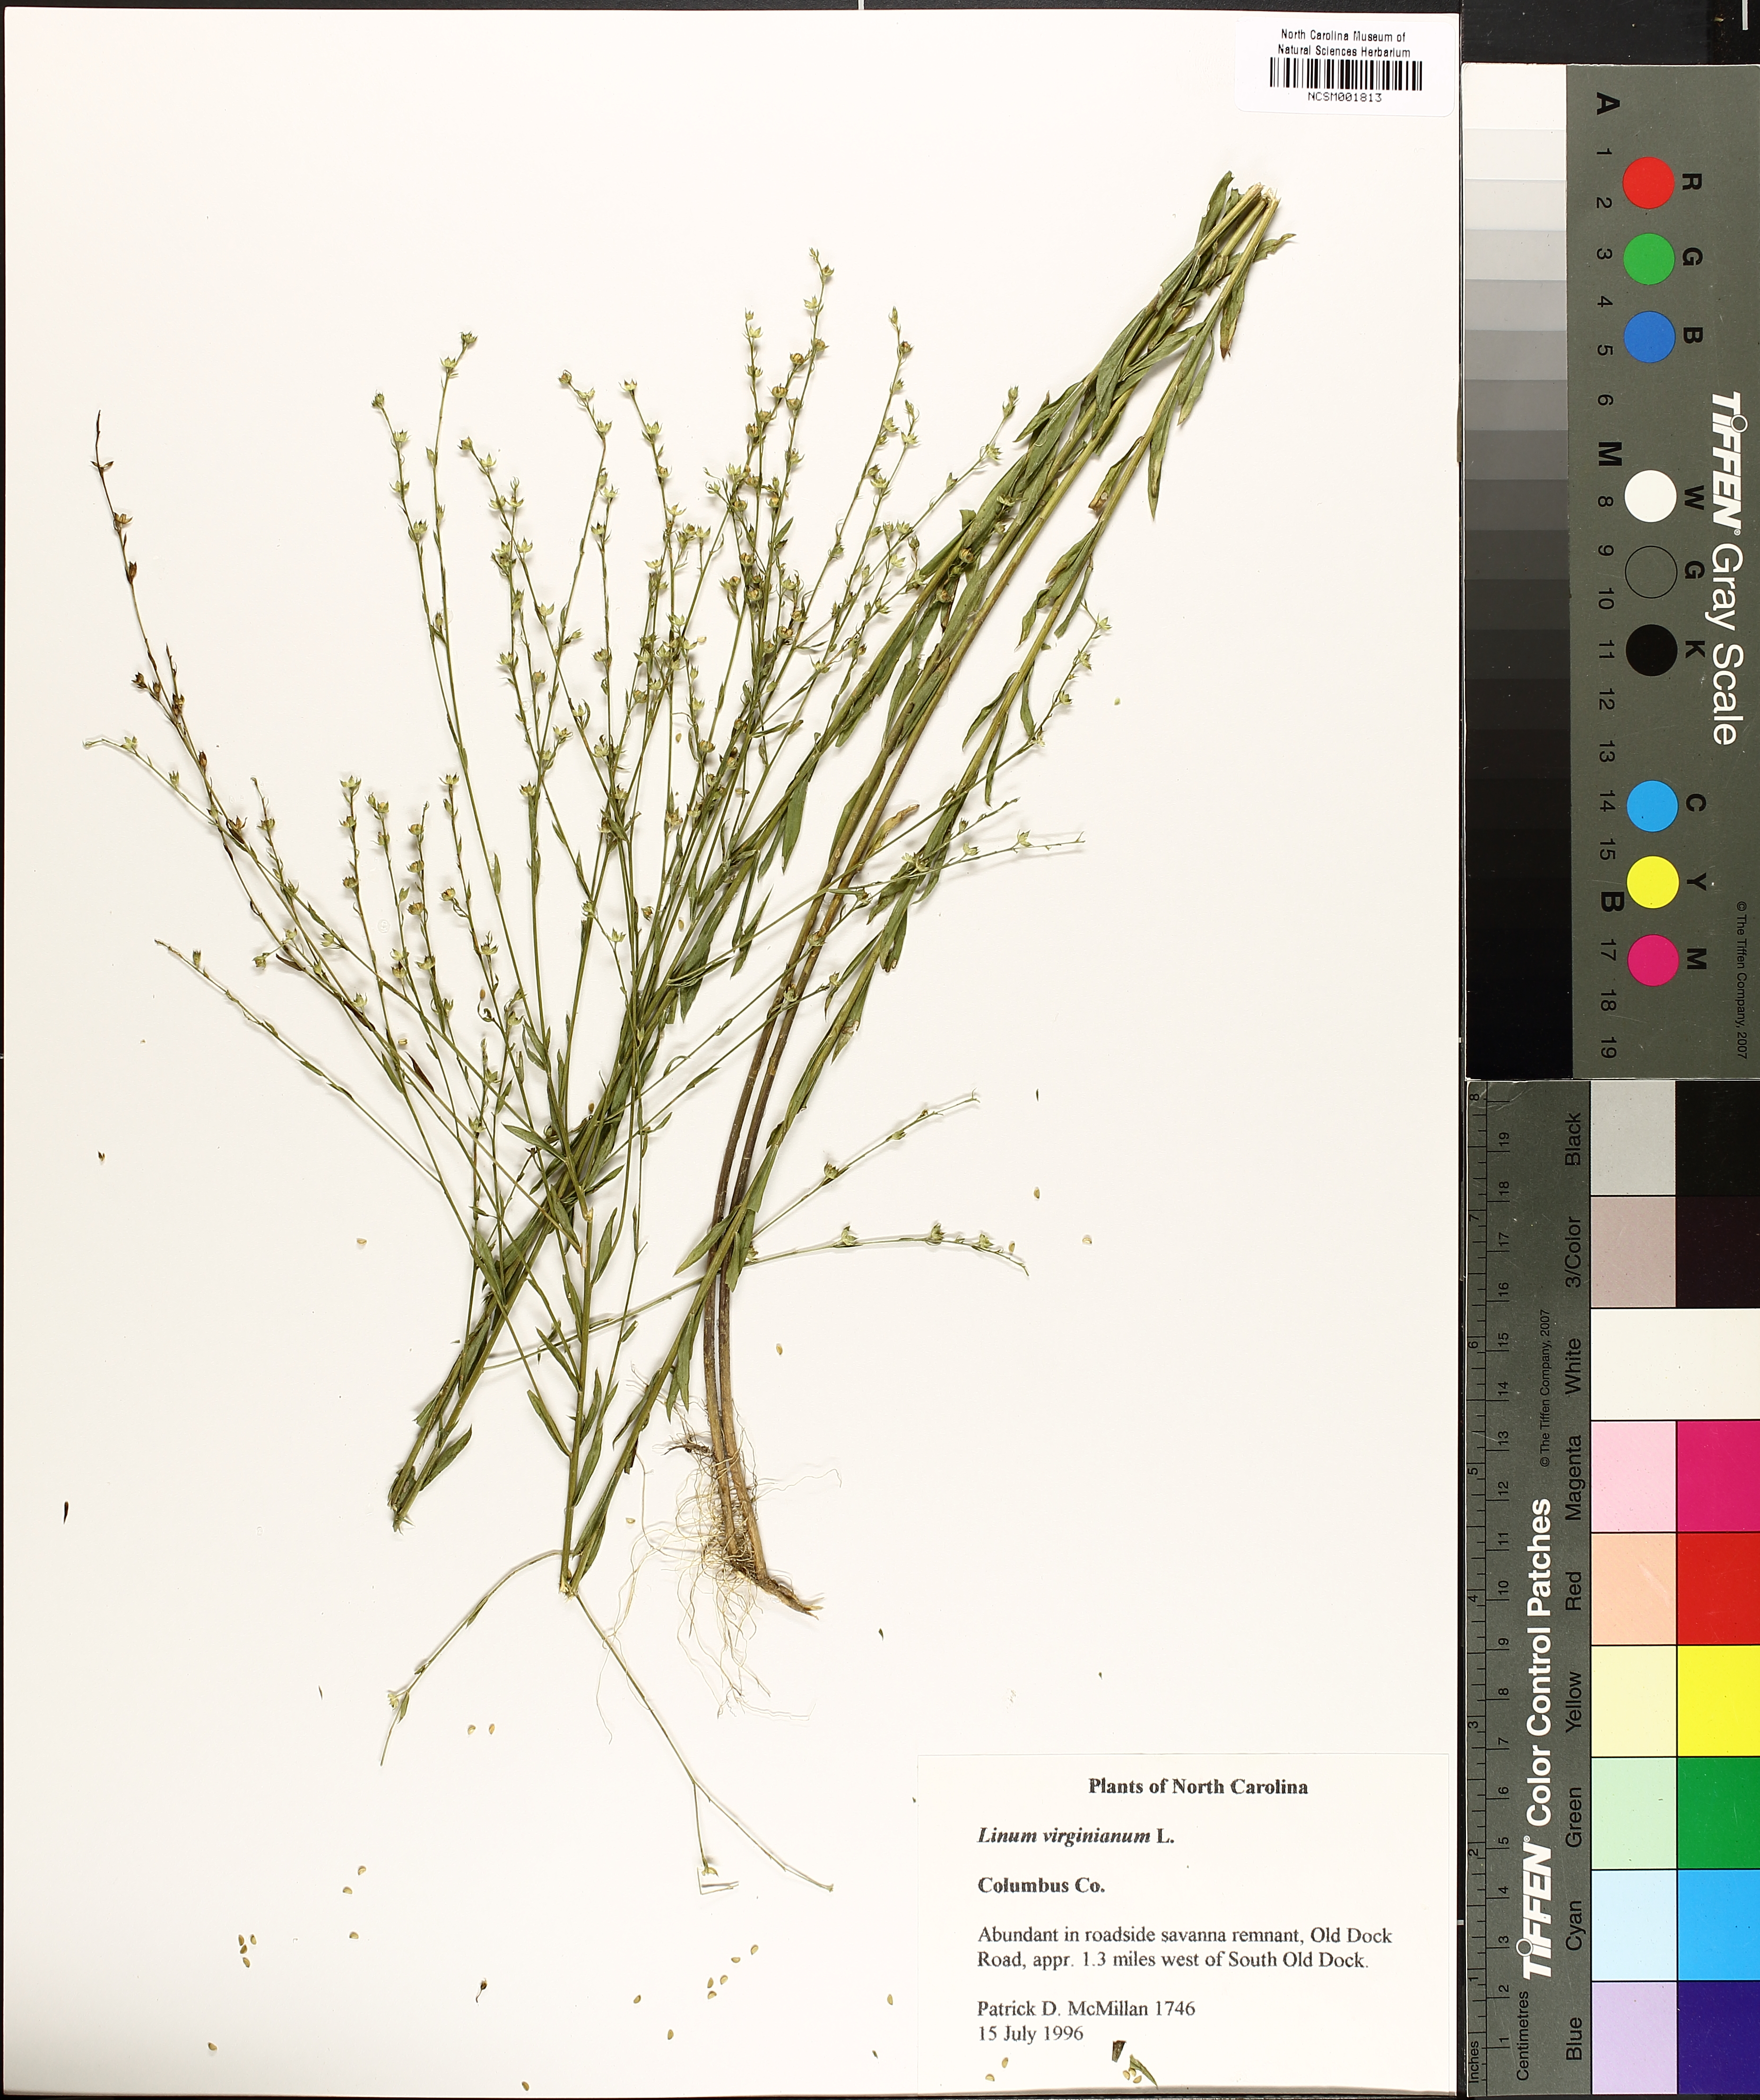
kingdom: Plantae
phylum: Tracheophyta
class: Magnoliopsida
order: Malpighiales
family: Linaceae
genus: Linum
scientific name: Linum virginianum
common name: Slender yellow flax
